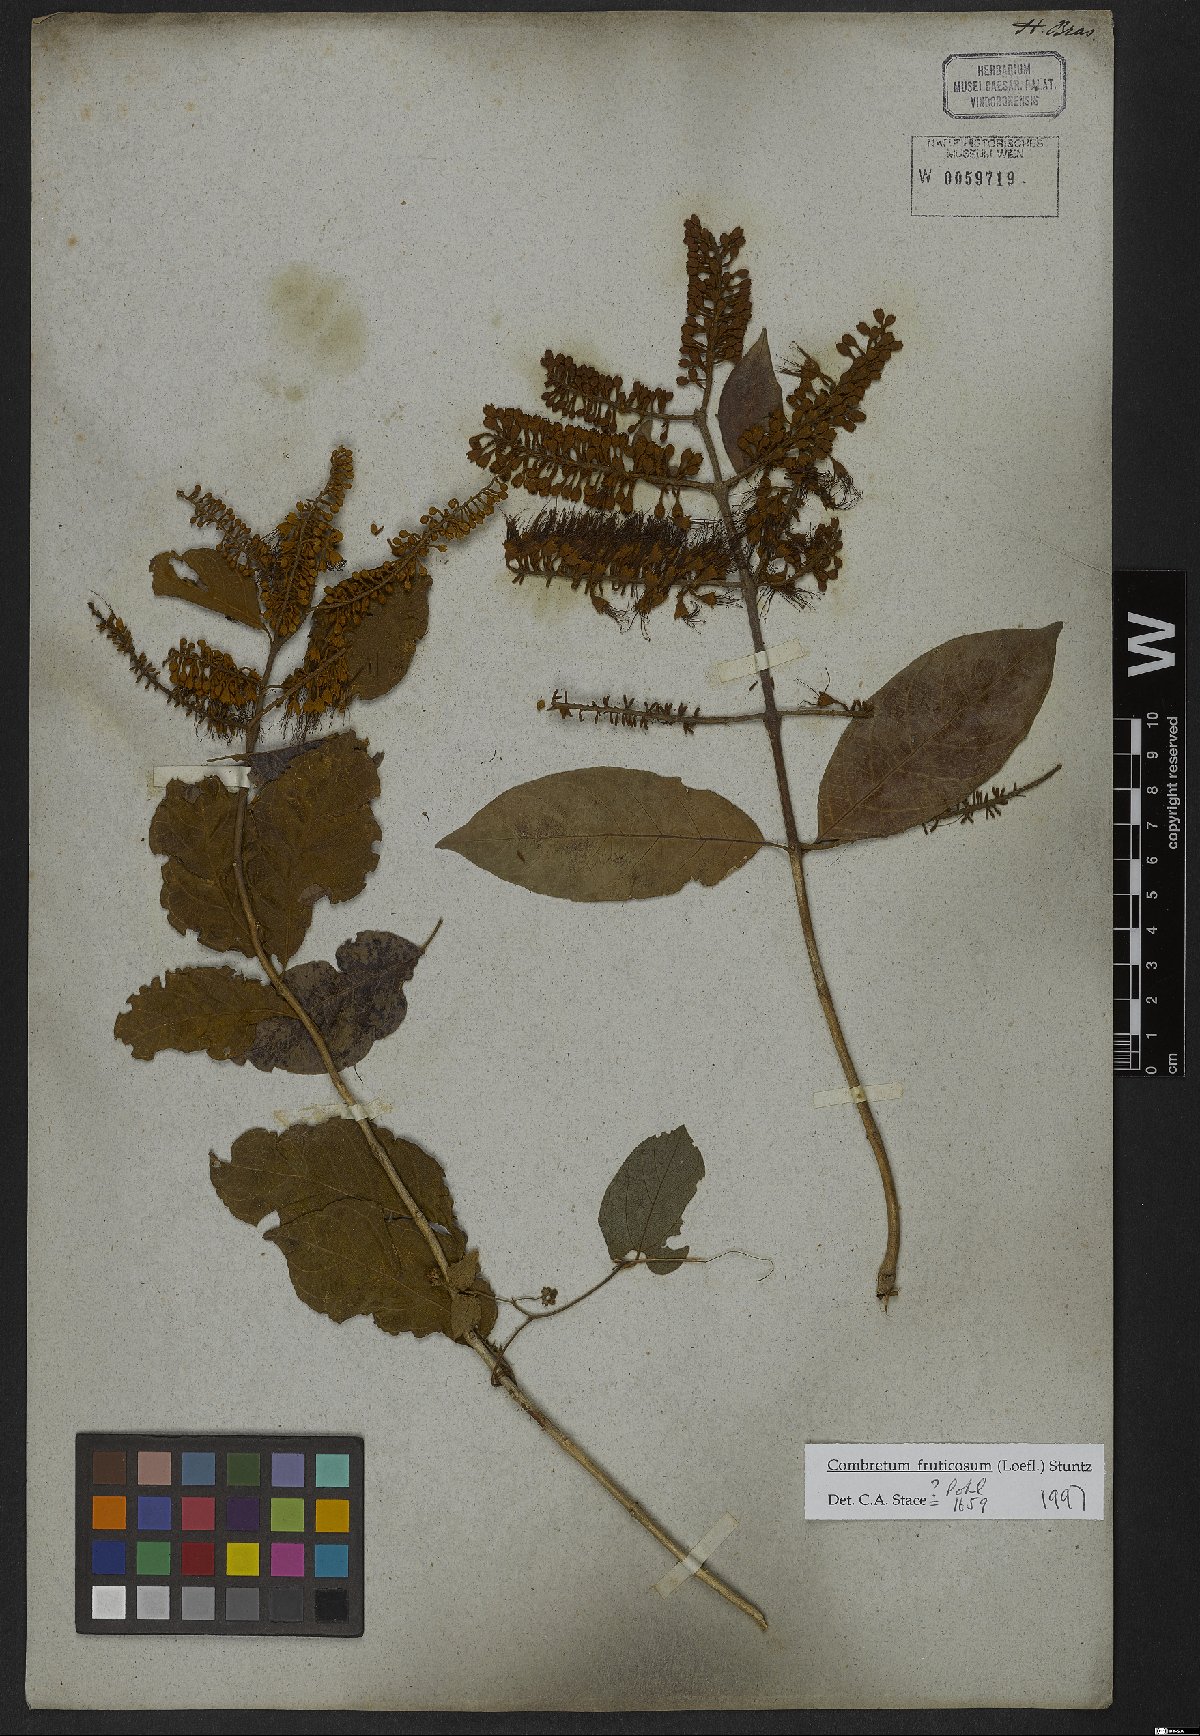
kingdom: Plantae
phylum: Tracheophyta
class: Magnoliopsida
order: Myrtales
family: Combretaceae
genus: Combretum
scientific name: Combretum fruticosum
